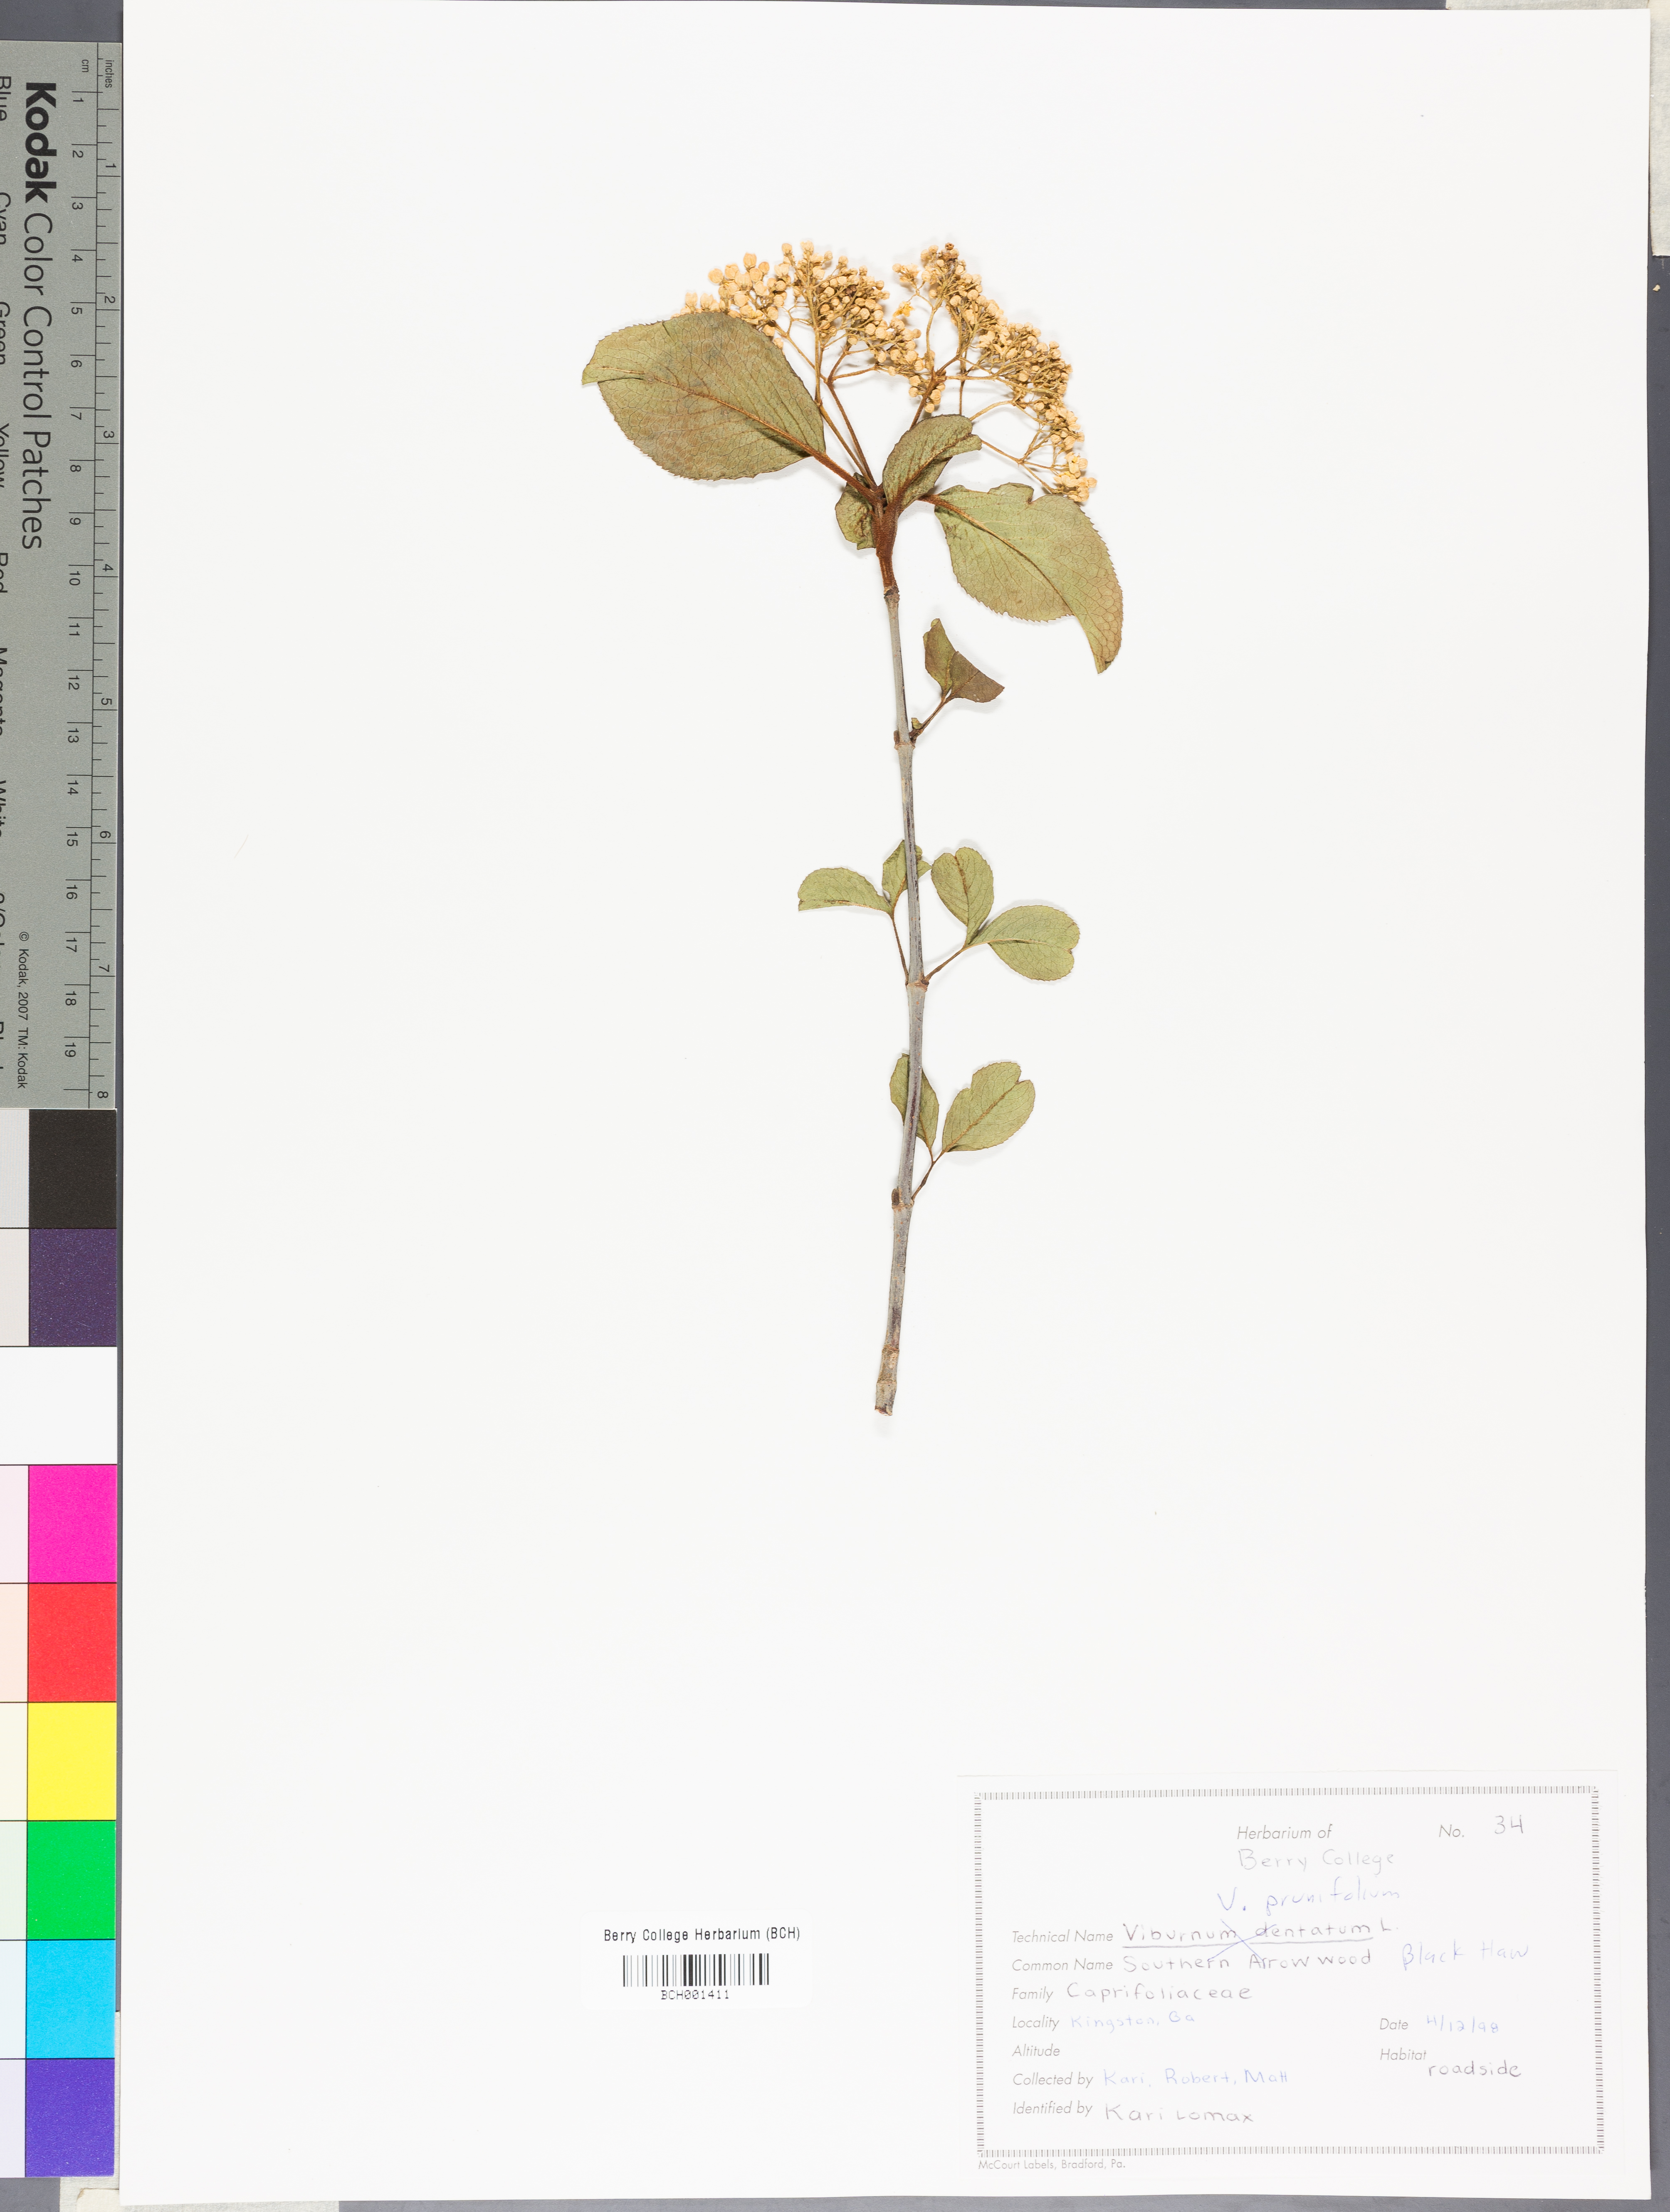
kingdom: Plantae
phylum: Tracheophyta
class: Magnoliopsida
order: Dipsacales
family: Viburnaceae
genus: Viburnum
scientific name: Viburnum prunifolium
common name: Black haw
